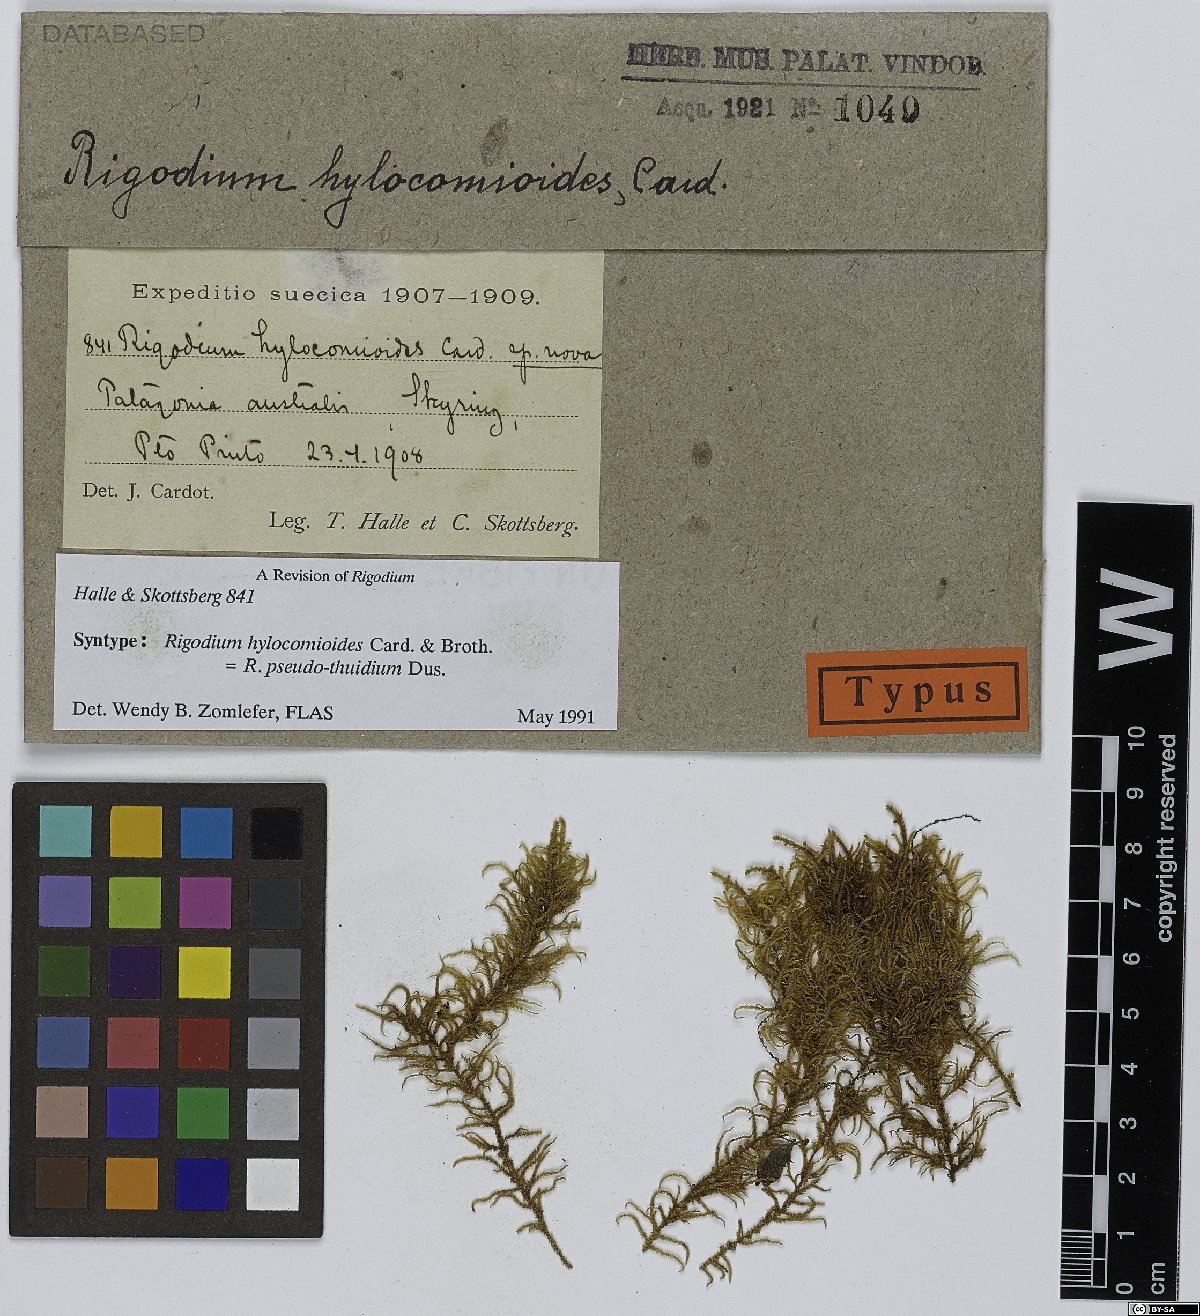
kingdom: Plantae
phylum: Bryophyta
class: Bryopsida
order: Hypnales
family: Lembophyllaceae
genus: Rigodium
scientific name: Rigodium pseudothuidium
